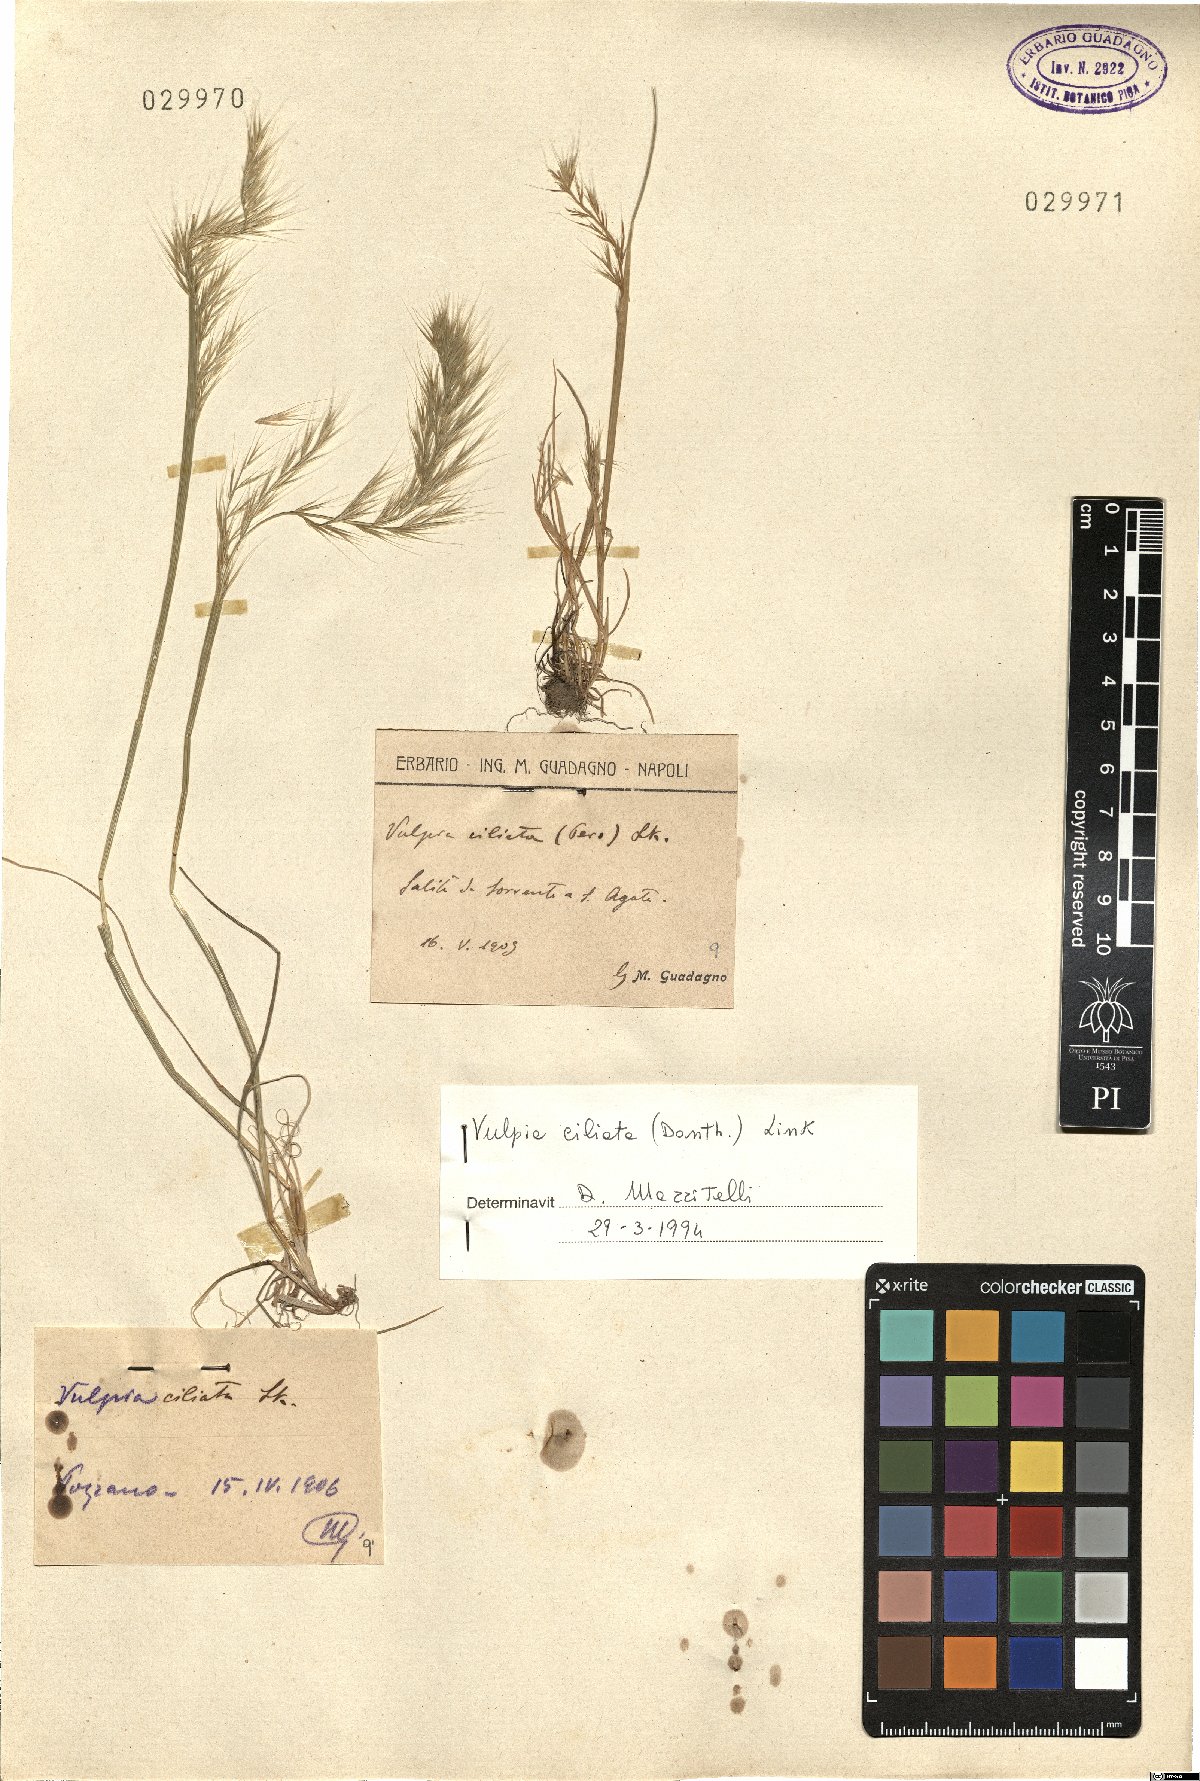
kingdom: Plantae
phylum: Tracheophyta
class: Liliopsida
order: Poales
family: Poaceae
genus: Festuca
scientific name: Festuca ambigua
